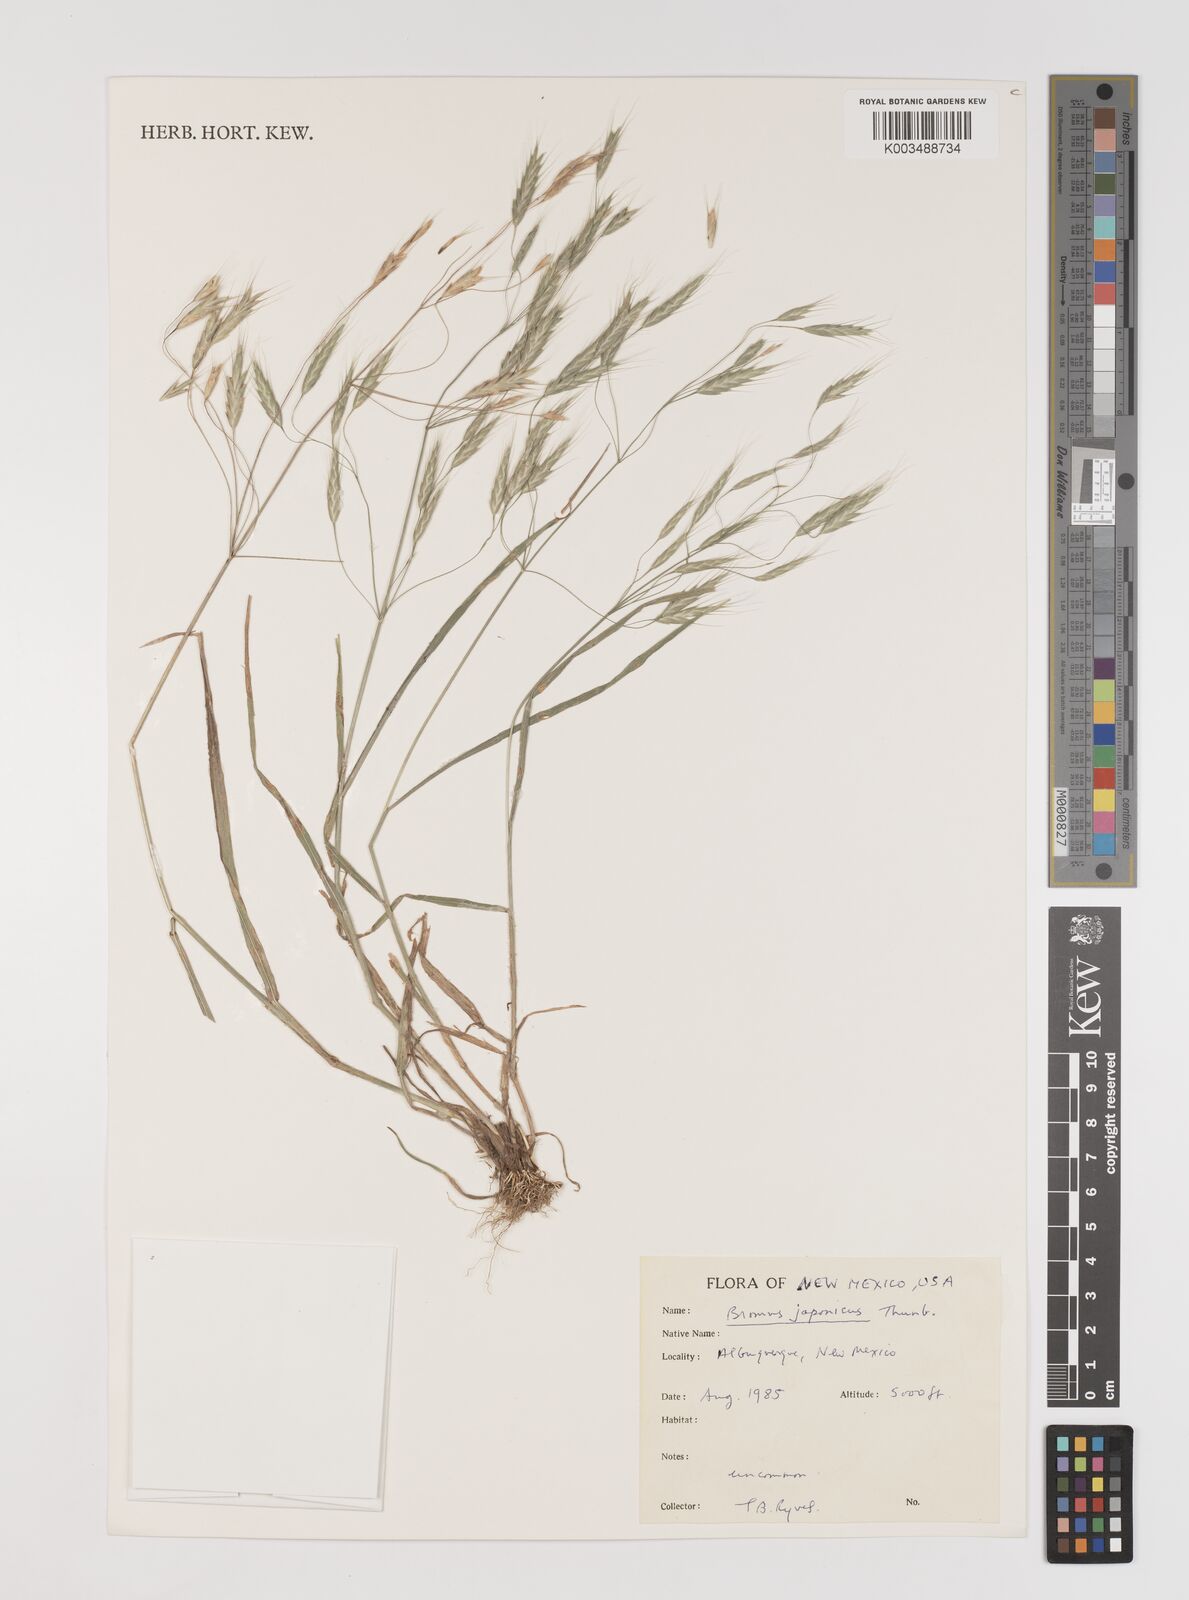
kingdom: Plantae
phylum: Tracheophyta
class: Liliopsida
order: Poales
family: Poaceae
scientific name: Poaceae
